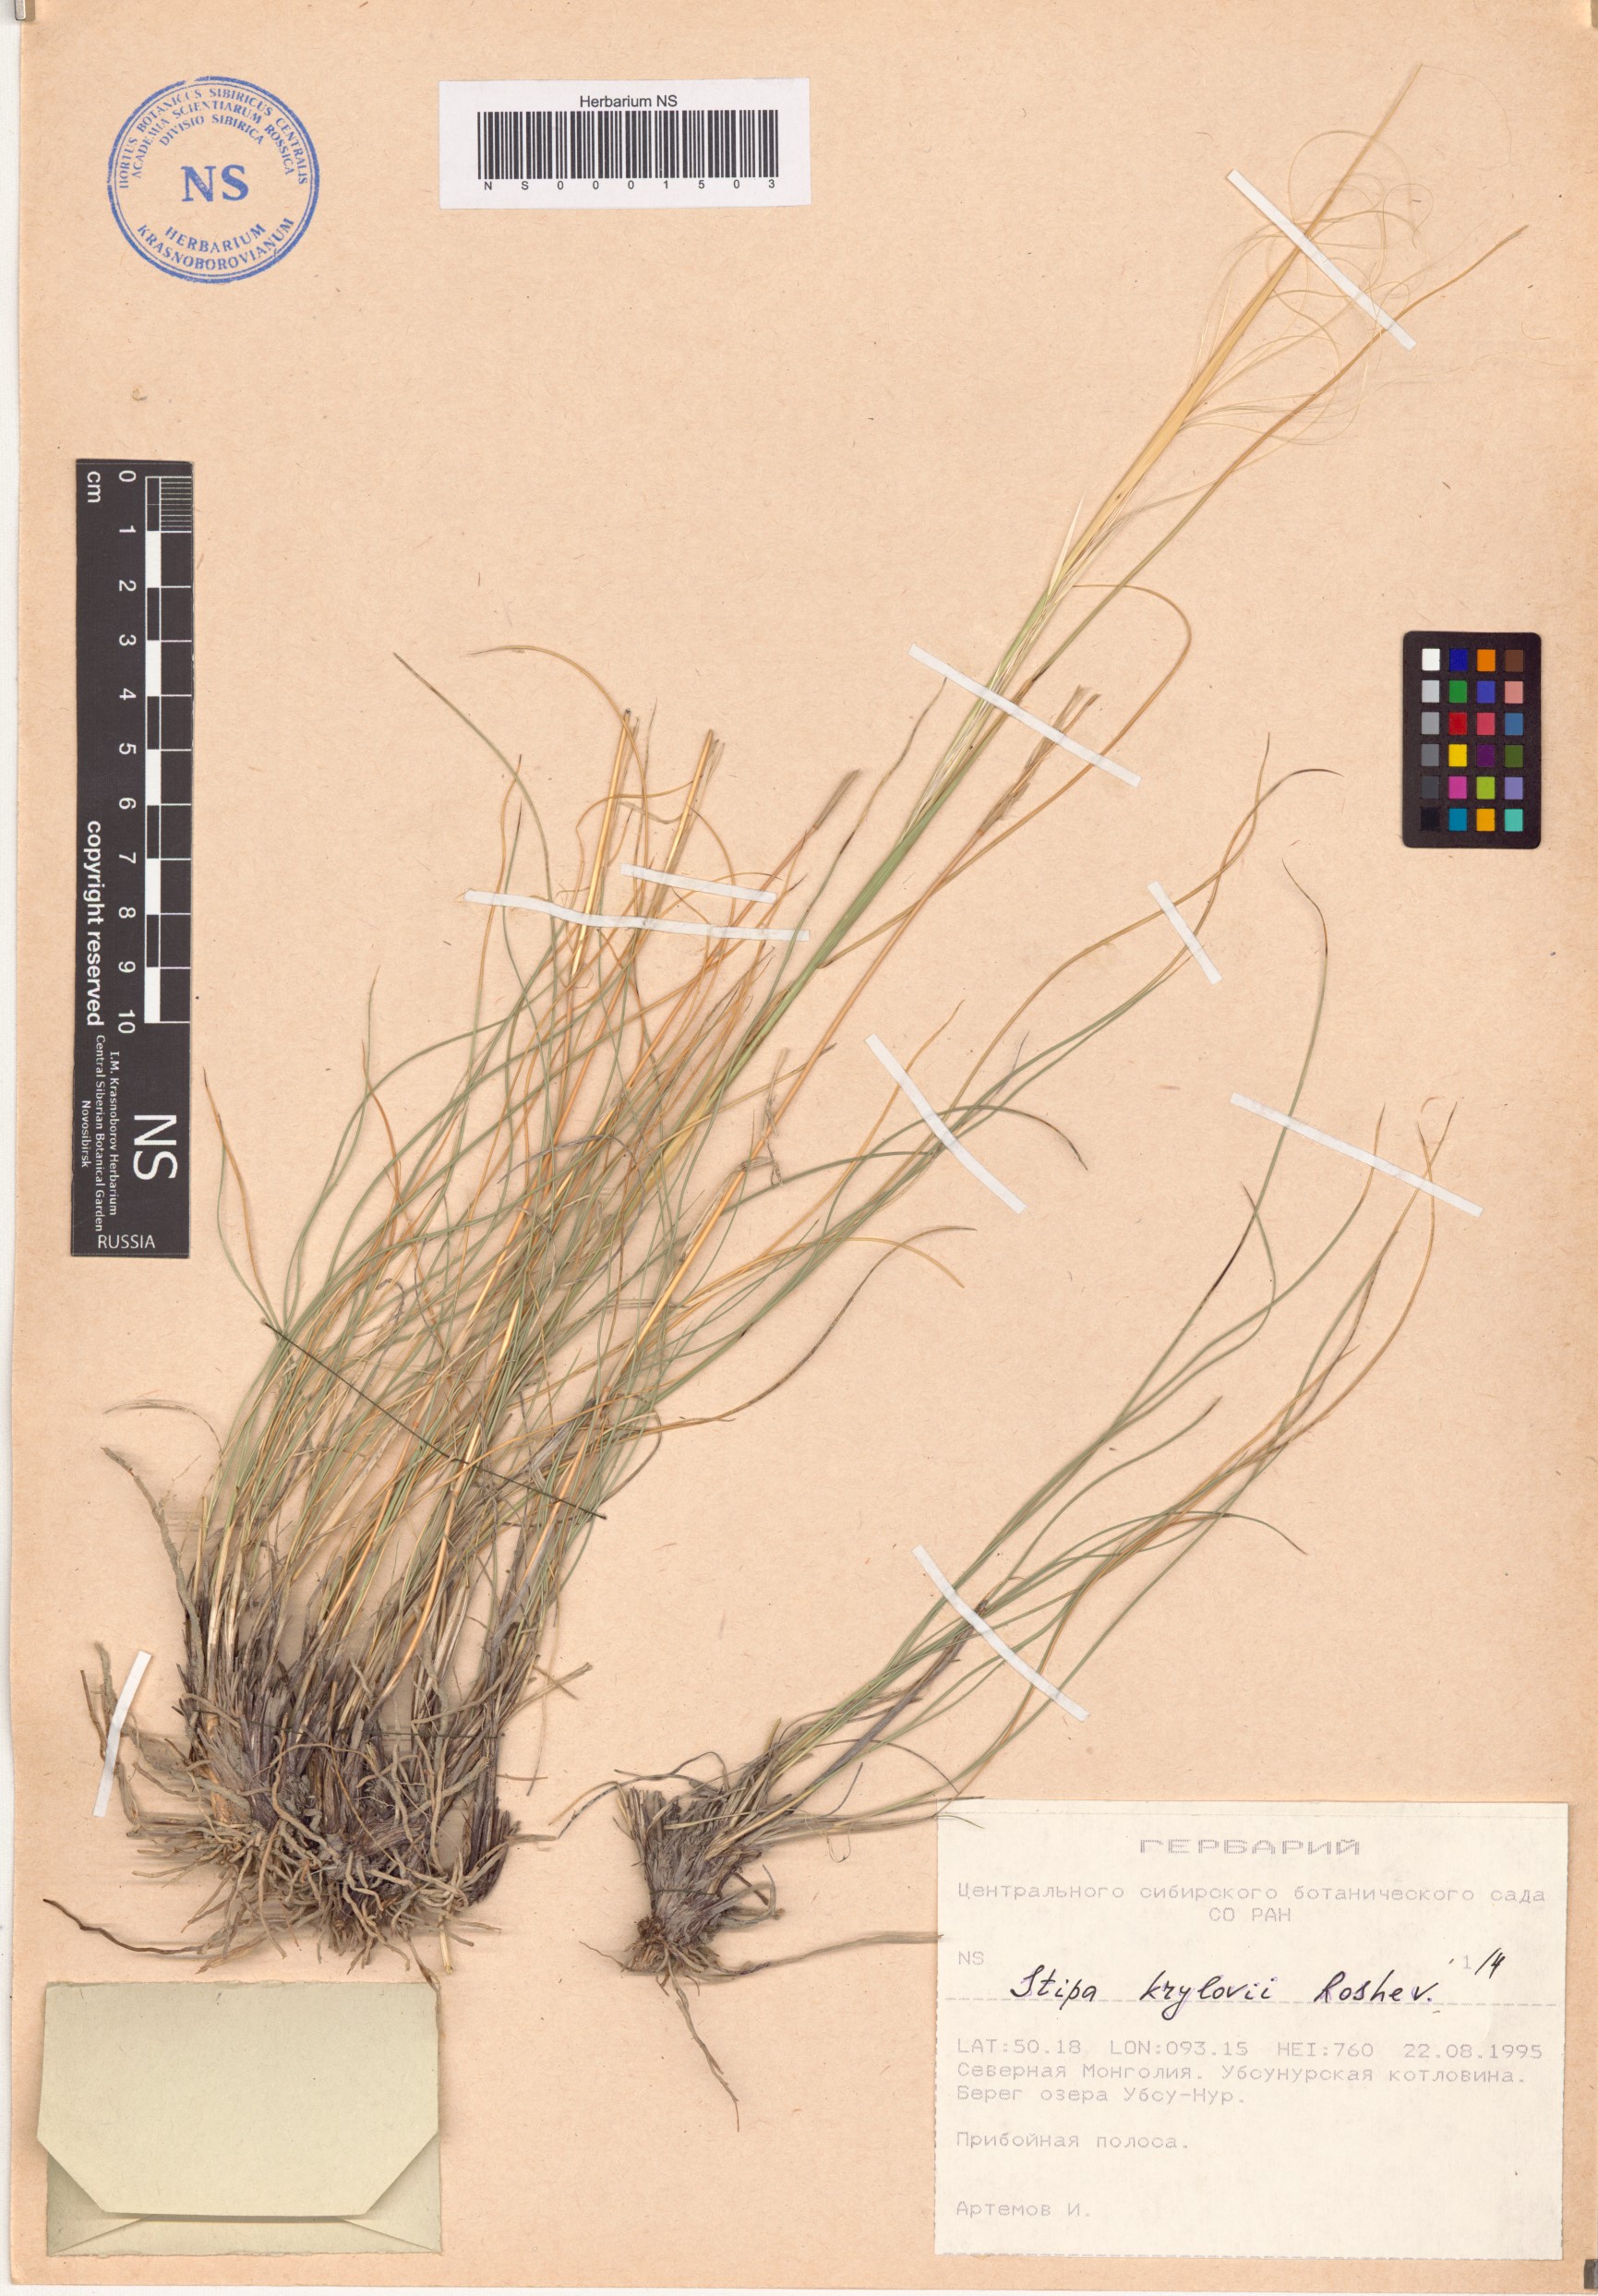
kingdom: Plantae
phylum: Tracheophyta
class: Liliopsida
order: Poales
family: Poaceae
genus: Stipa
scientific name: Stipa krylovii
